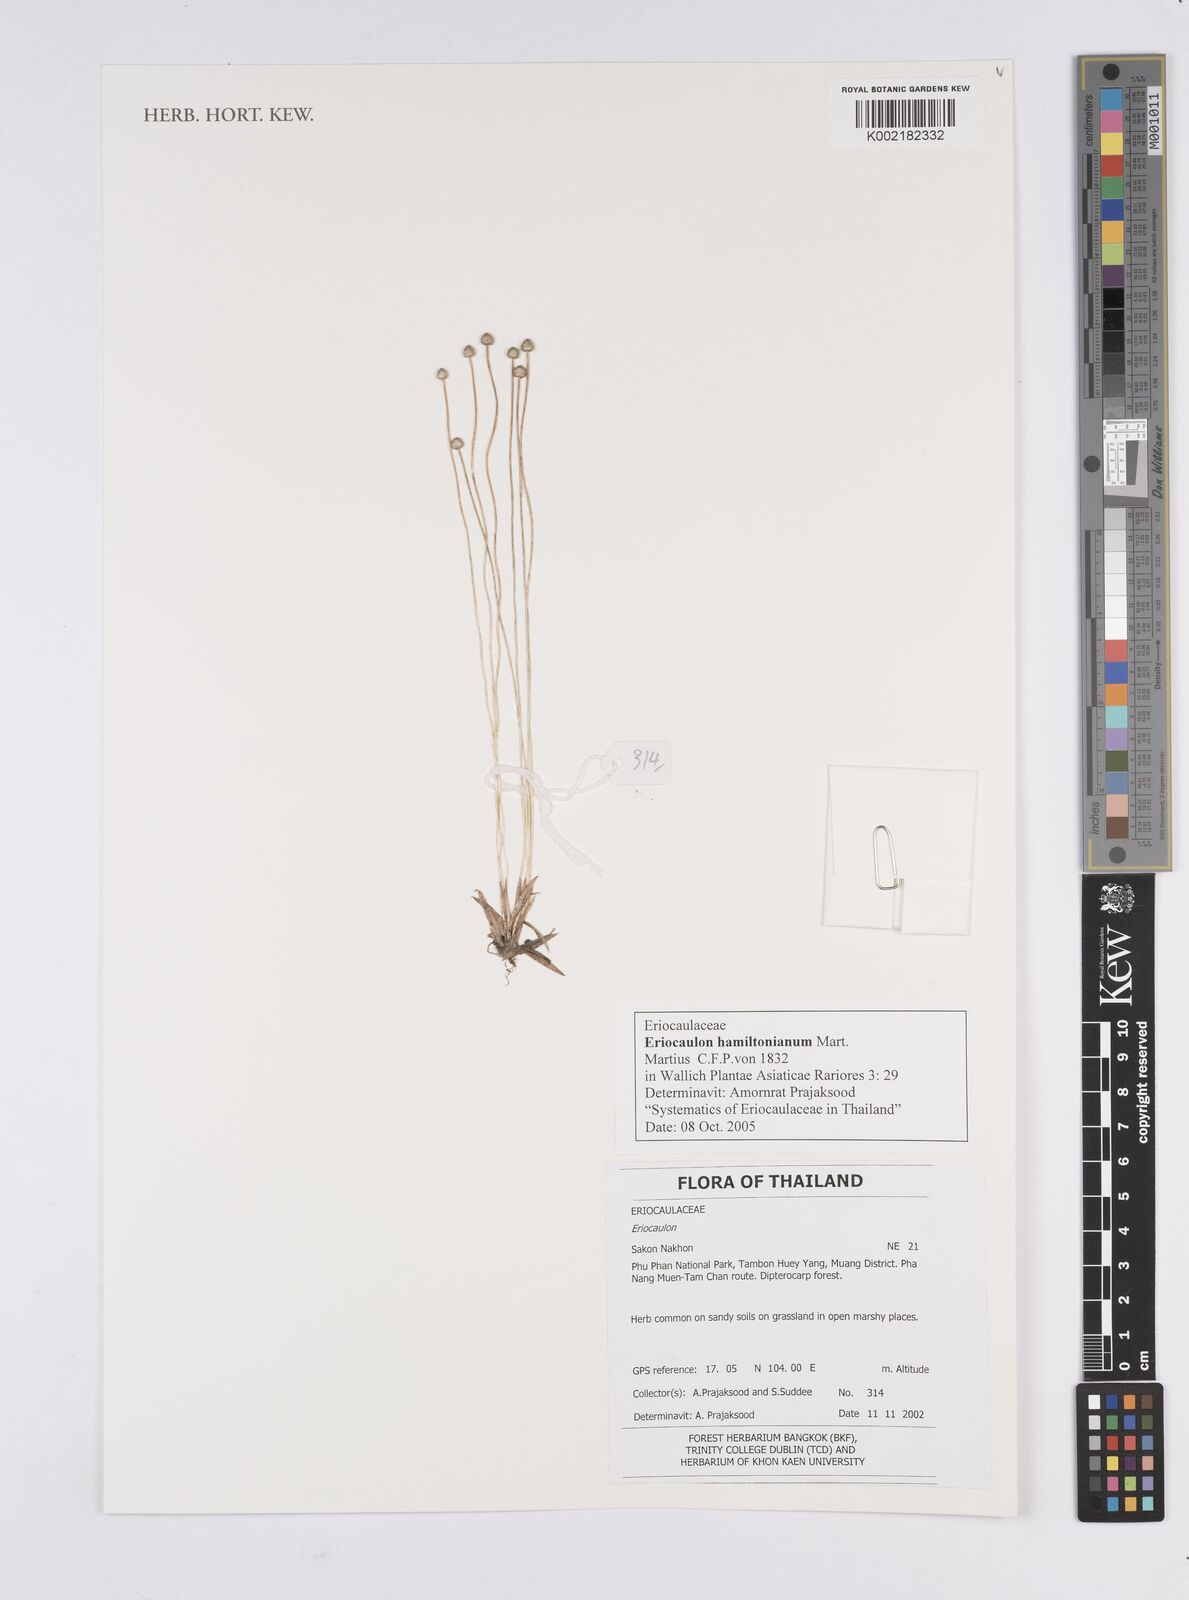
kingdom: Plantae
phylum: Tracheophyta
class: Liliopsida
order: Poales
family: Eriocaulaceae
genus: Eriocaulon
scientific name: Eriocaulon hamiltonianum
